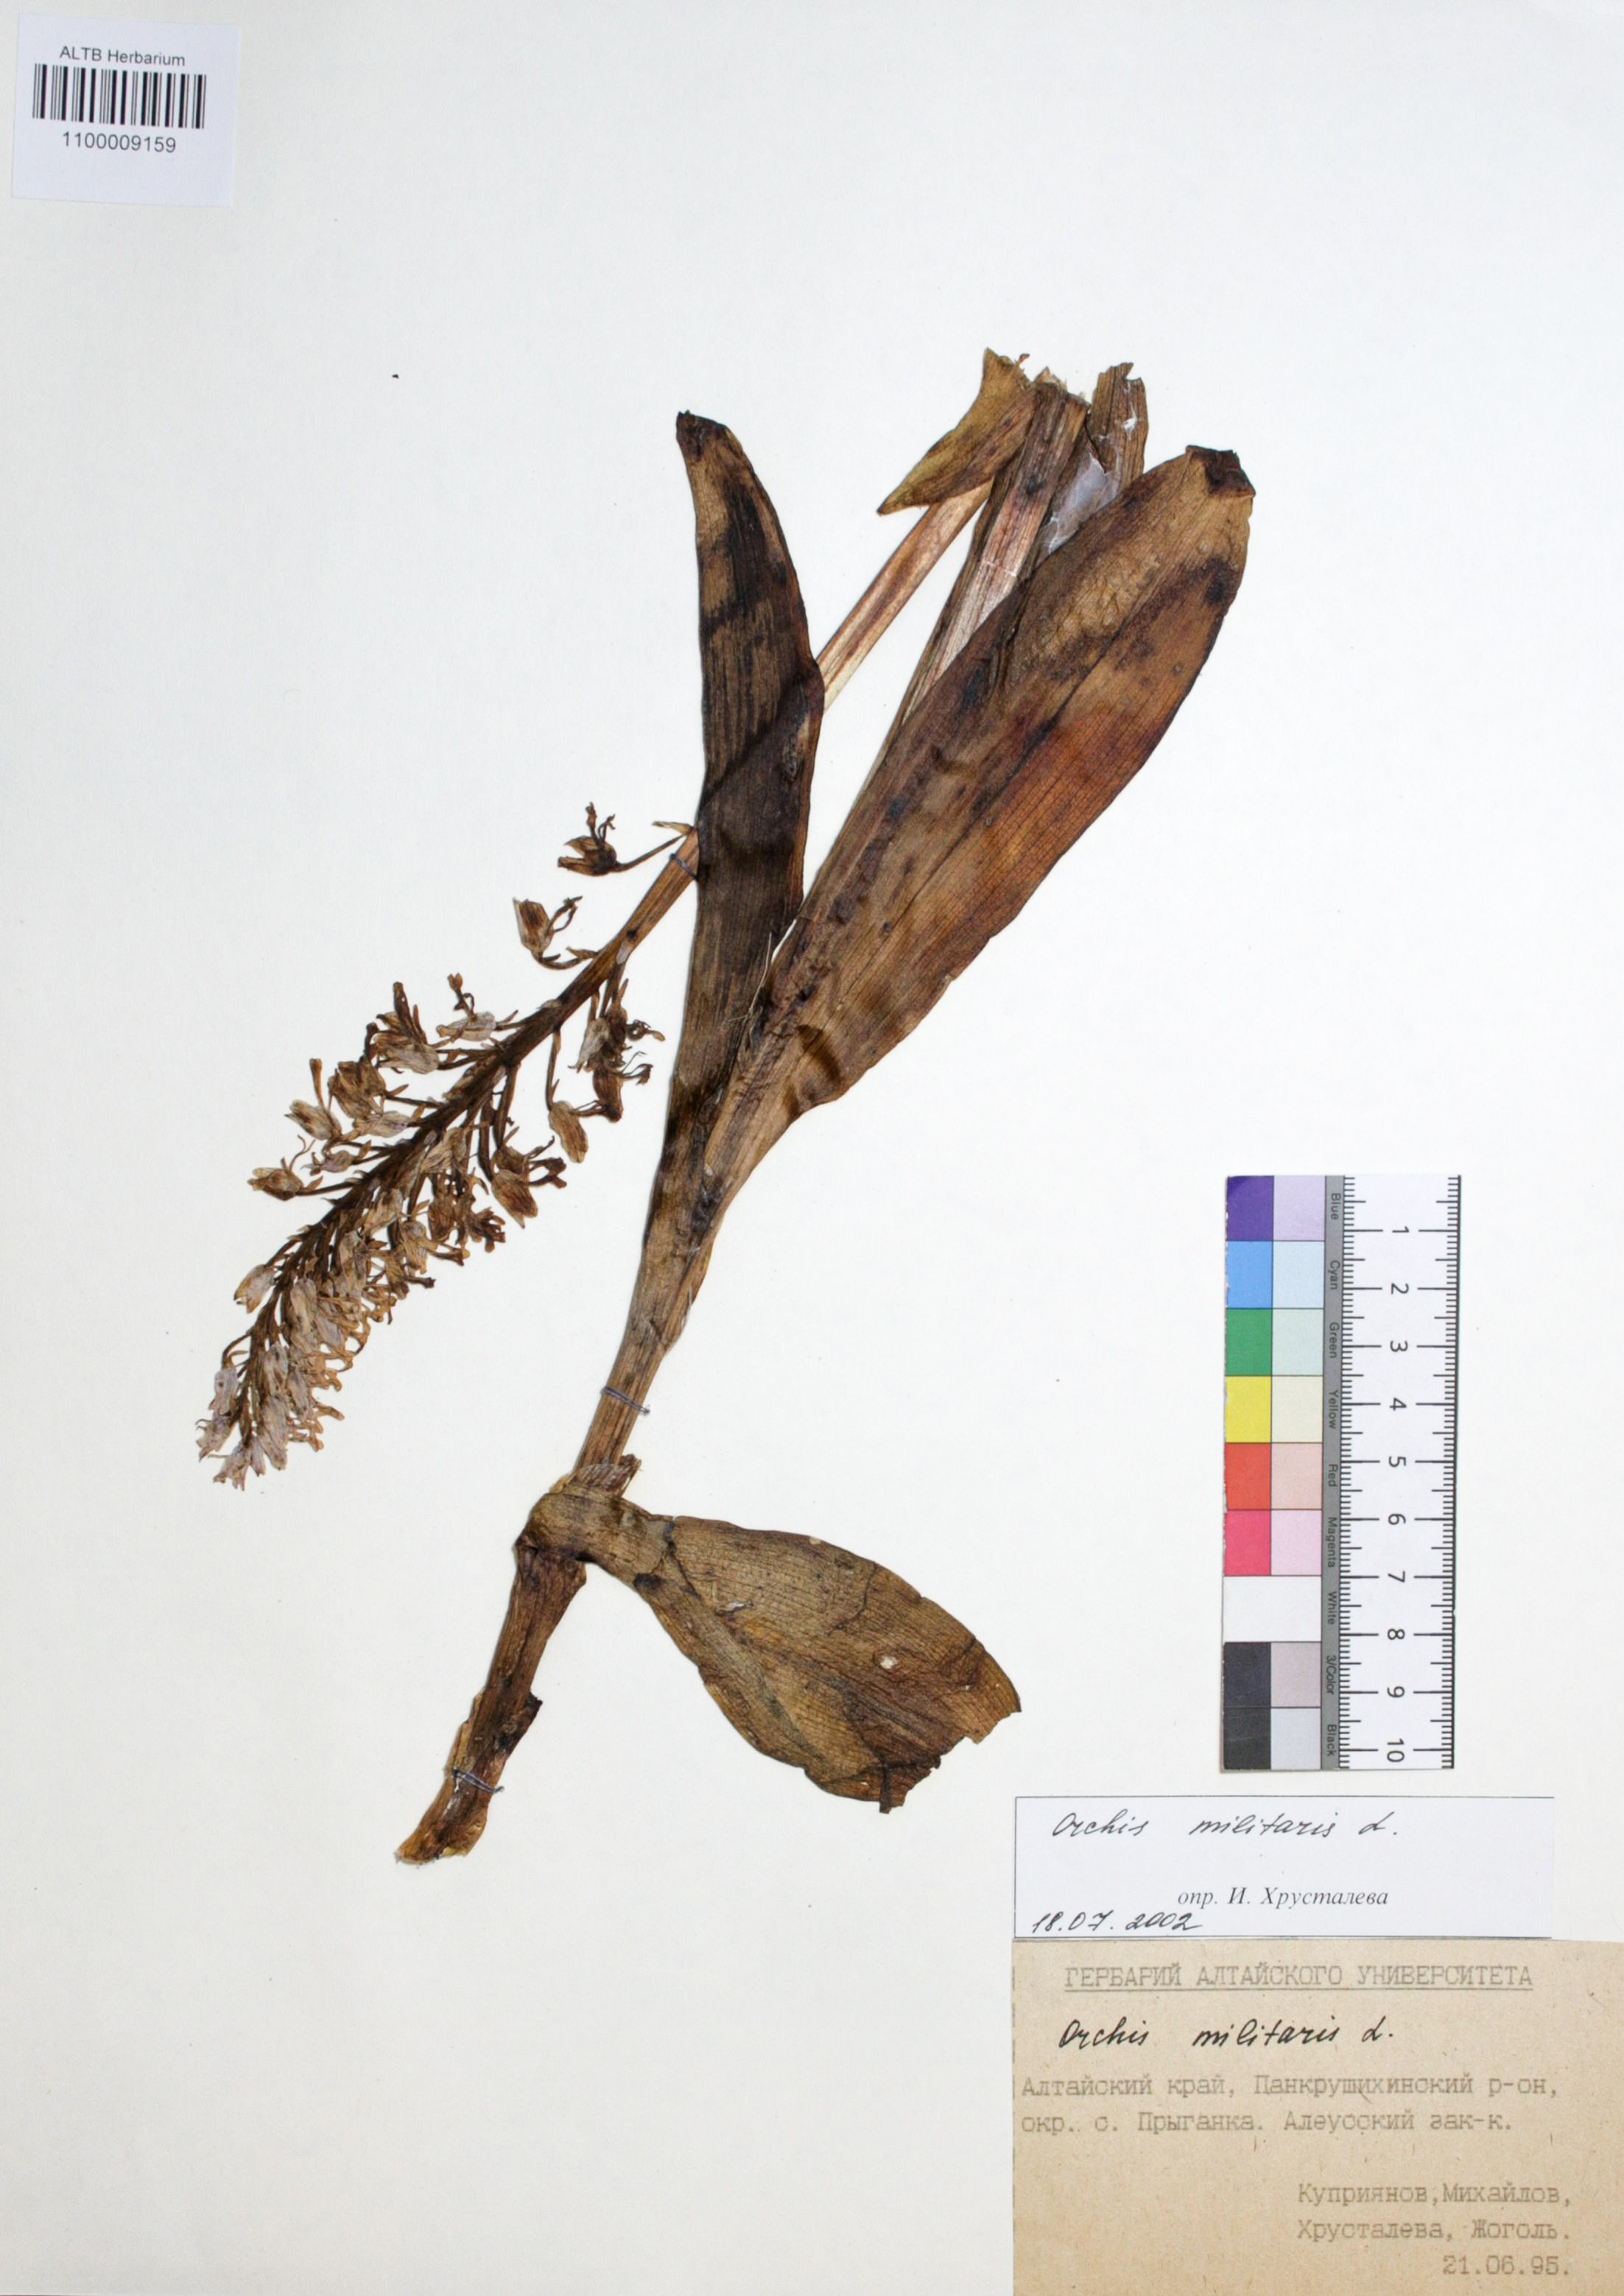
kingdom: Plantae
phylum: Tracheophyta
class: Liliopsida
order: Asparagales
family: Orchidaceae
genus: Orchis
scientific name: Orchis militaris
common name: Military orchid
